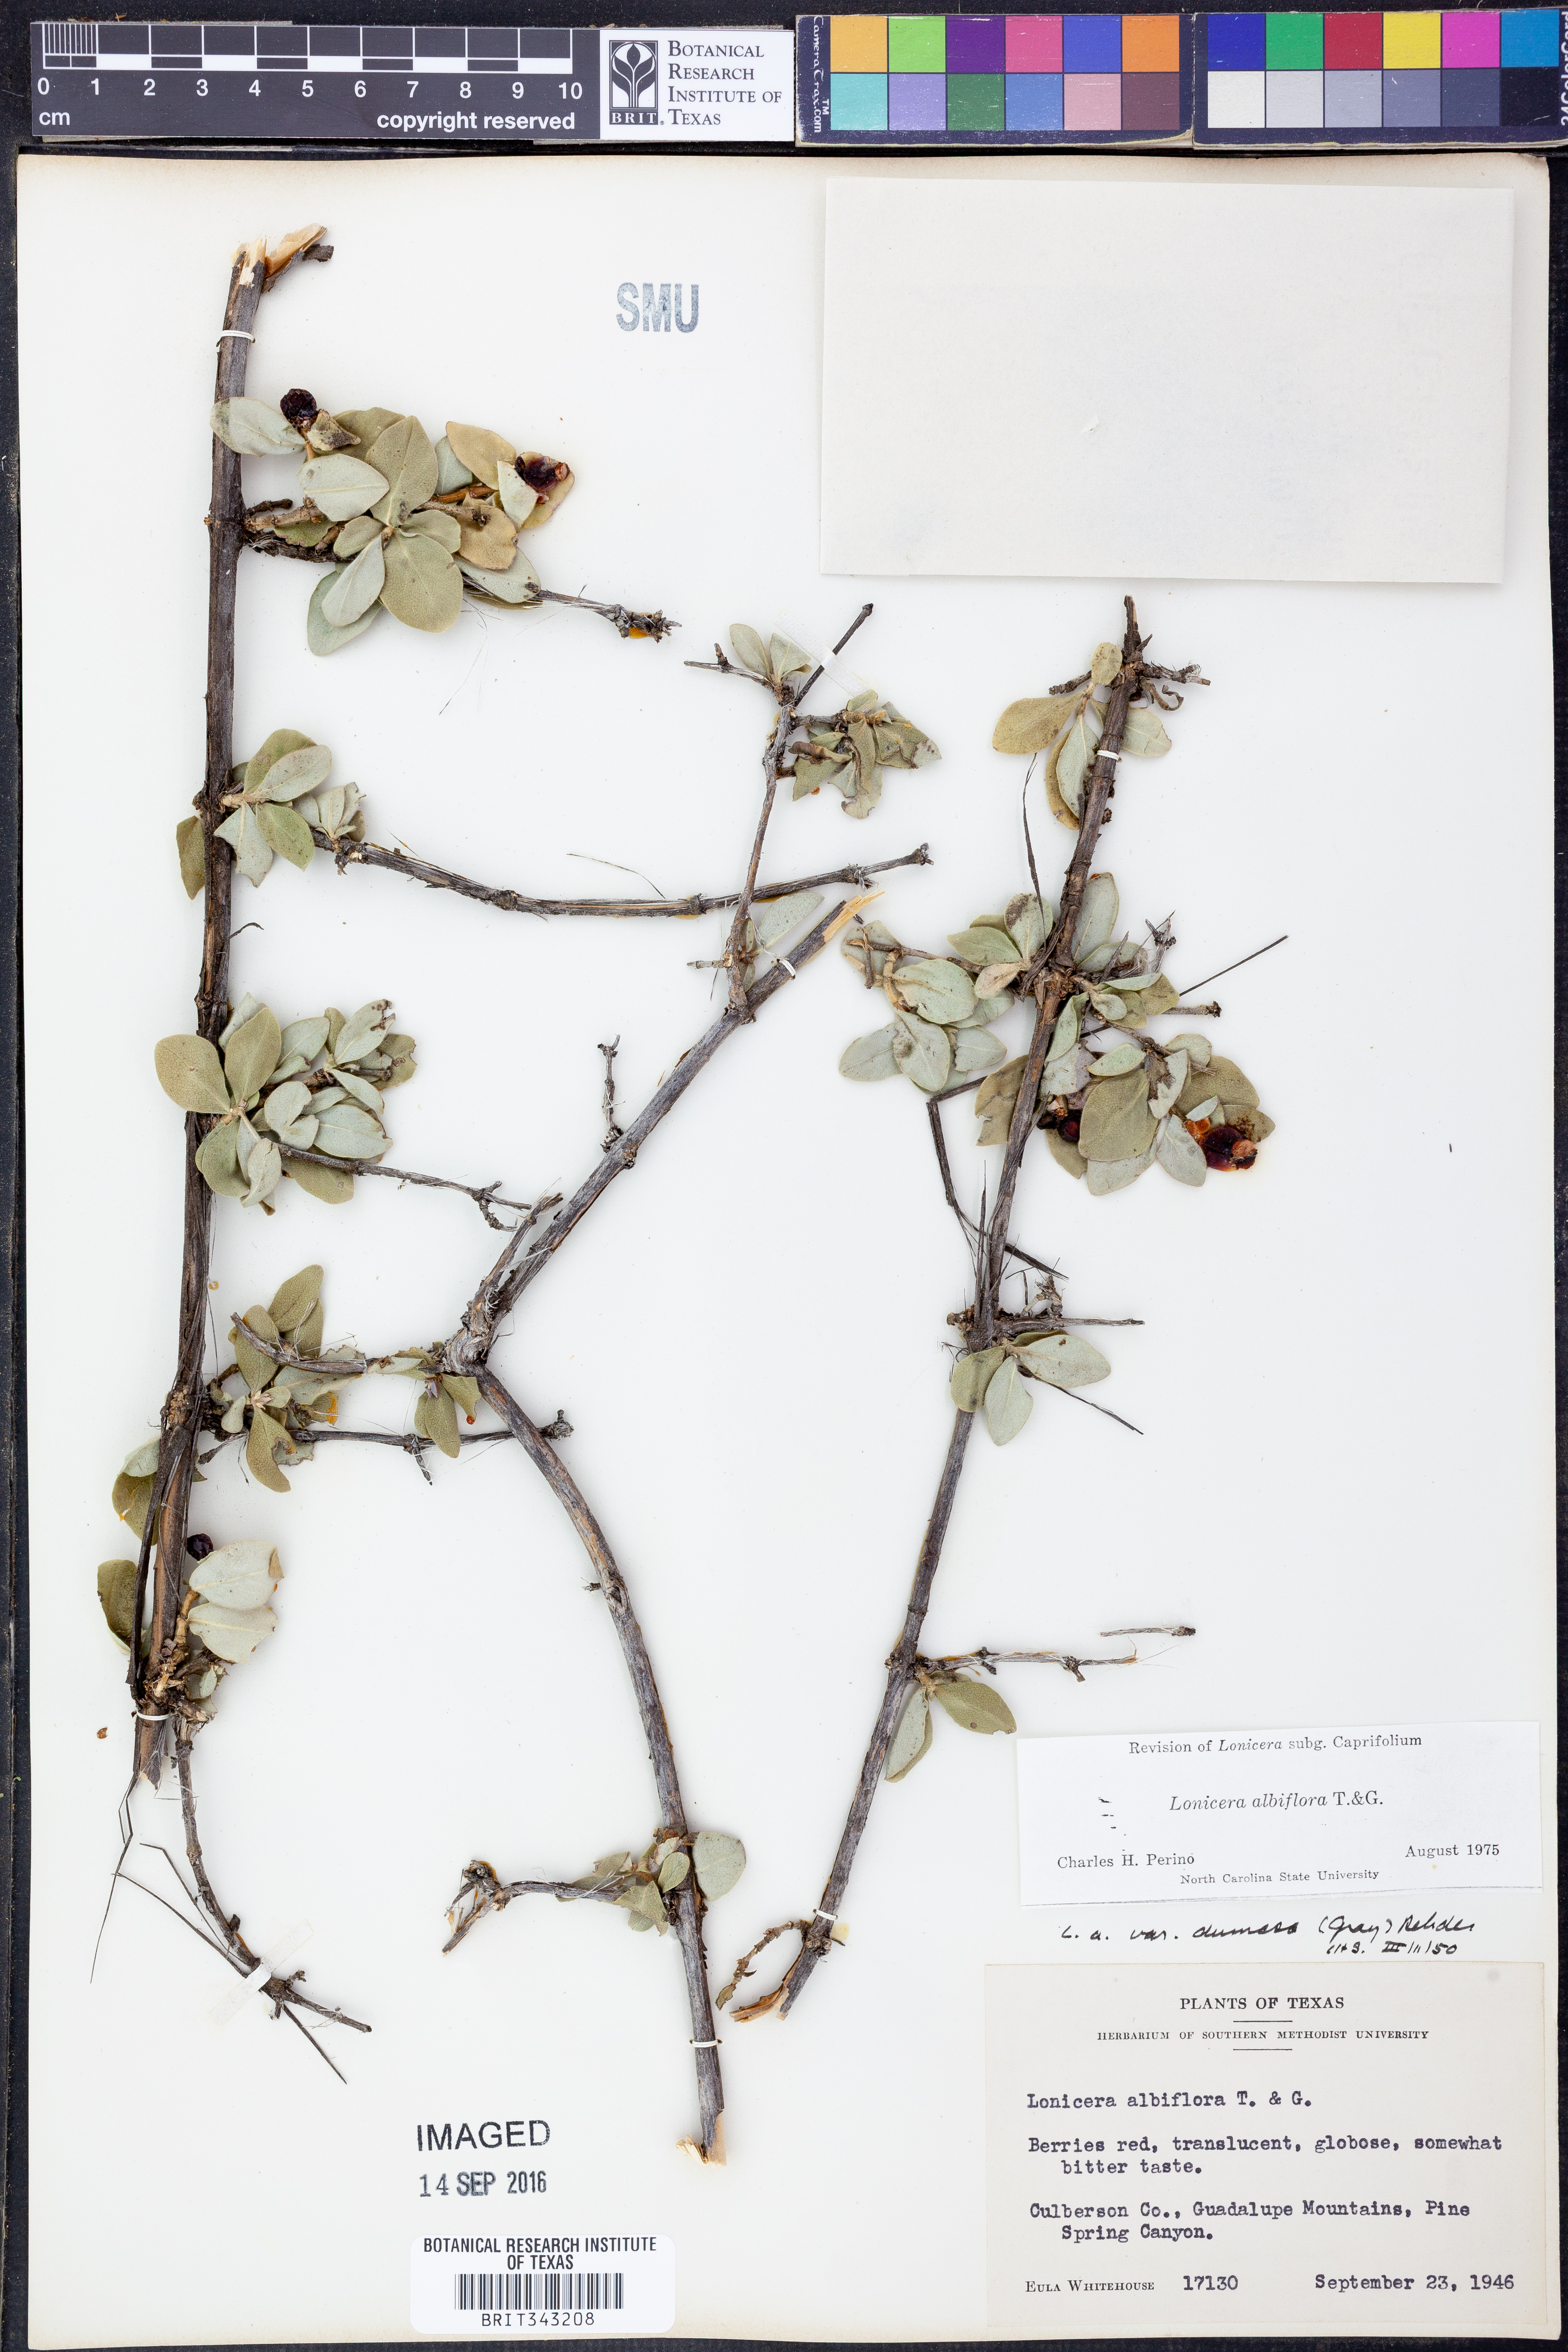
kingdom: Plantae
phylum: Tracheophyta
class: Magnoliopsida
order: Dipsacales
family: Caprifoliaceae
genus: Lonicera
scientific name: Lonicera albiflora
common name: White honeysuckle
